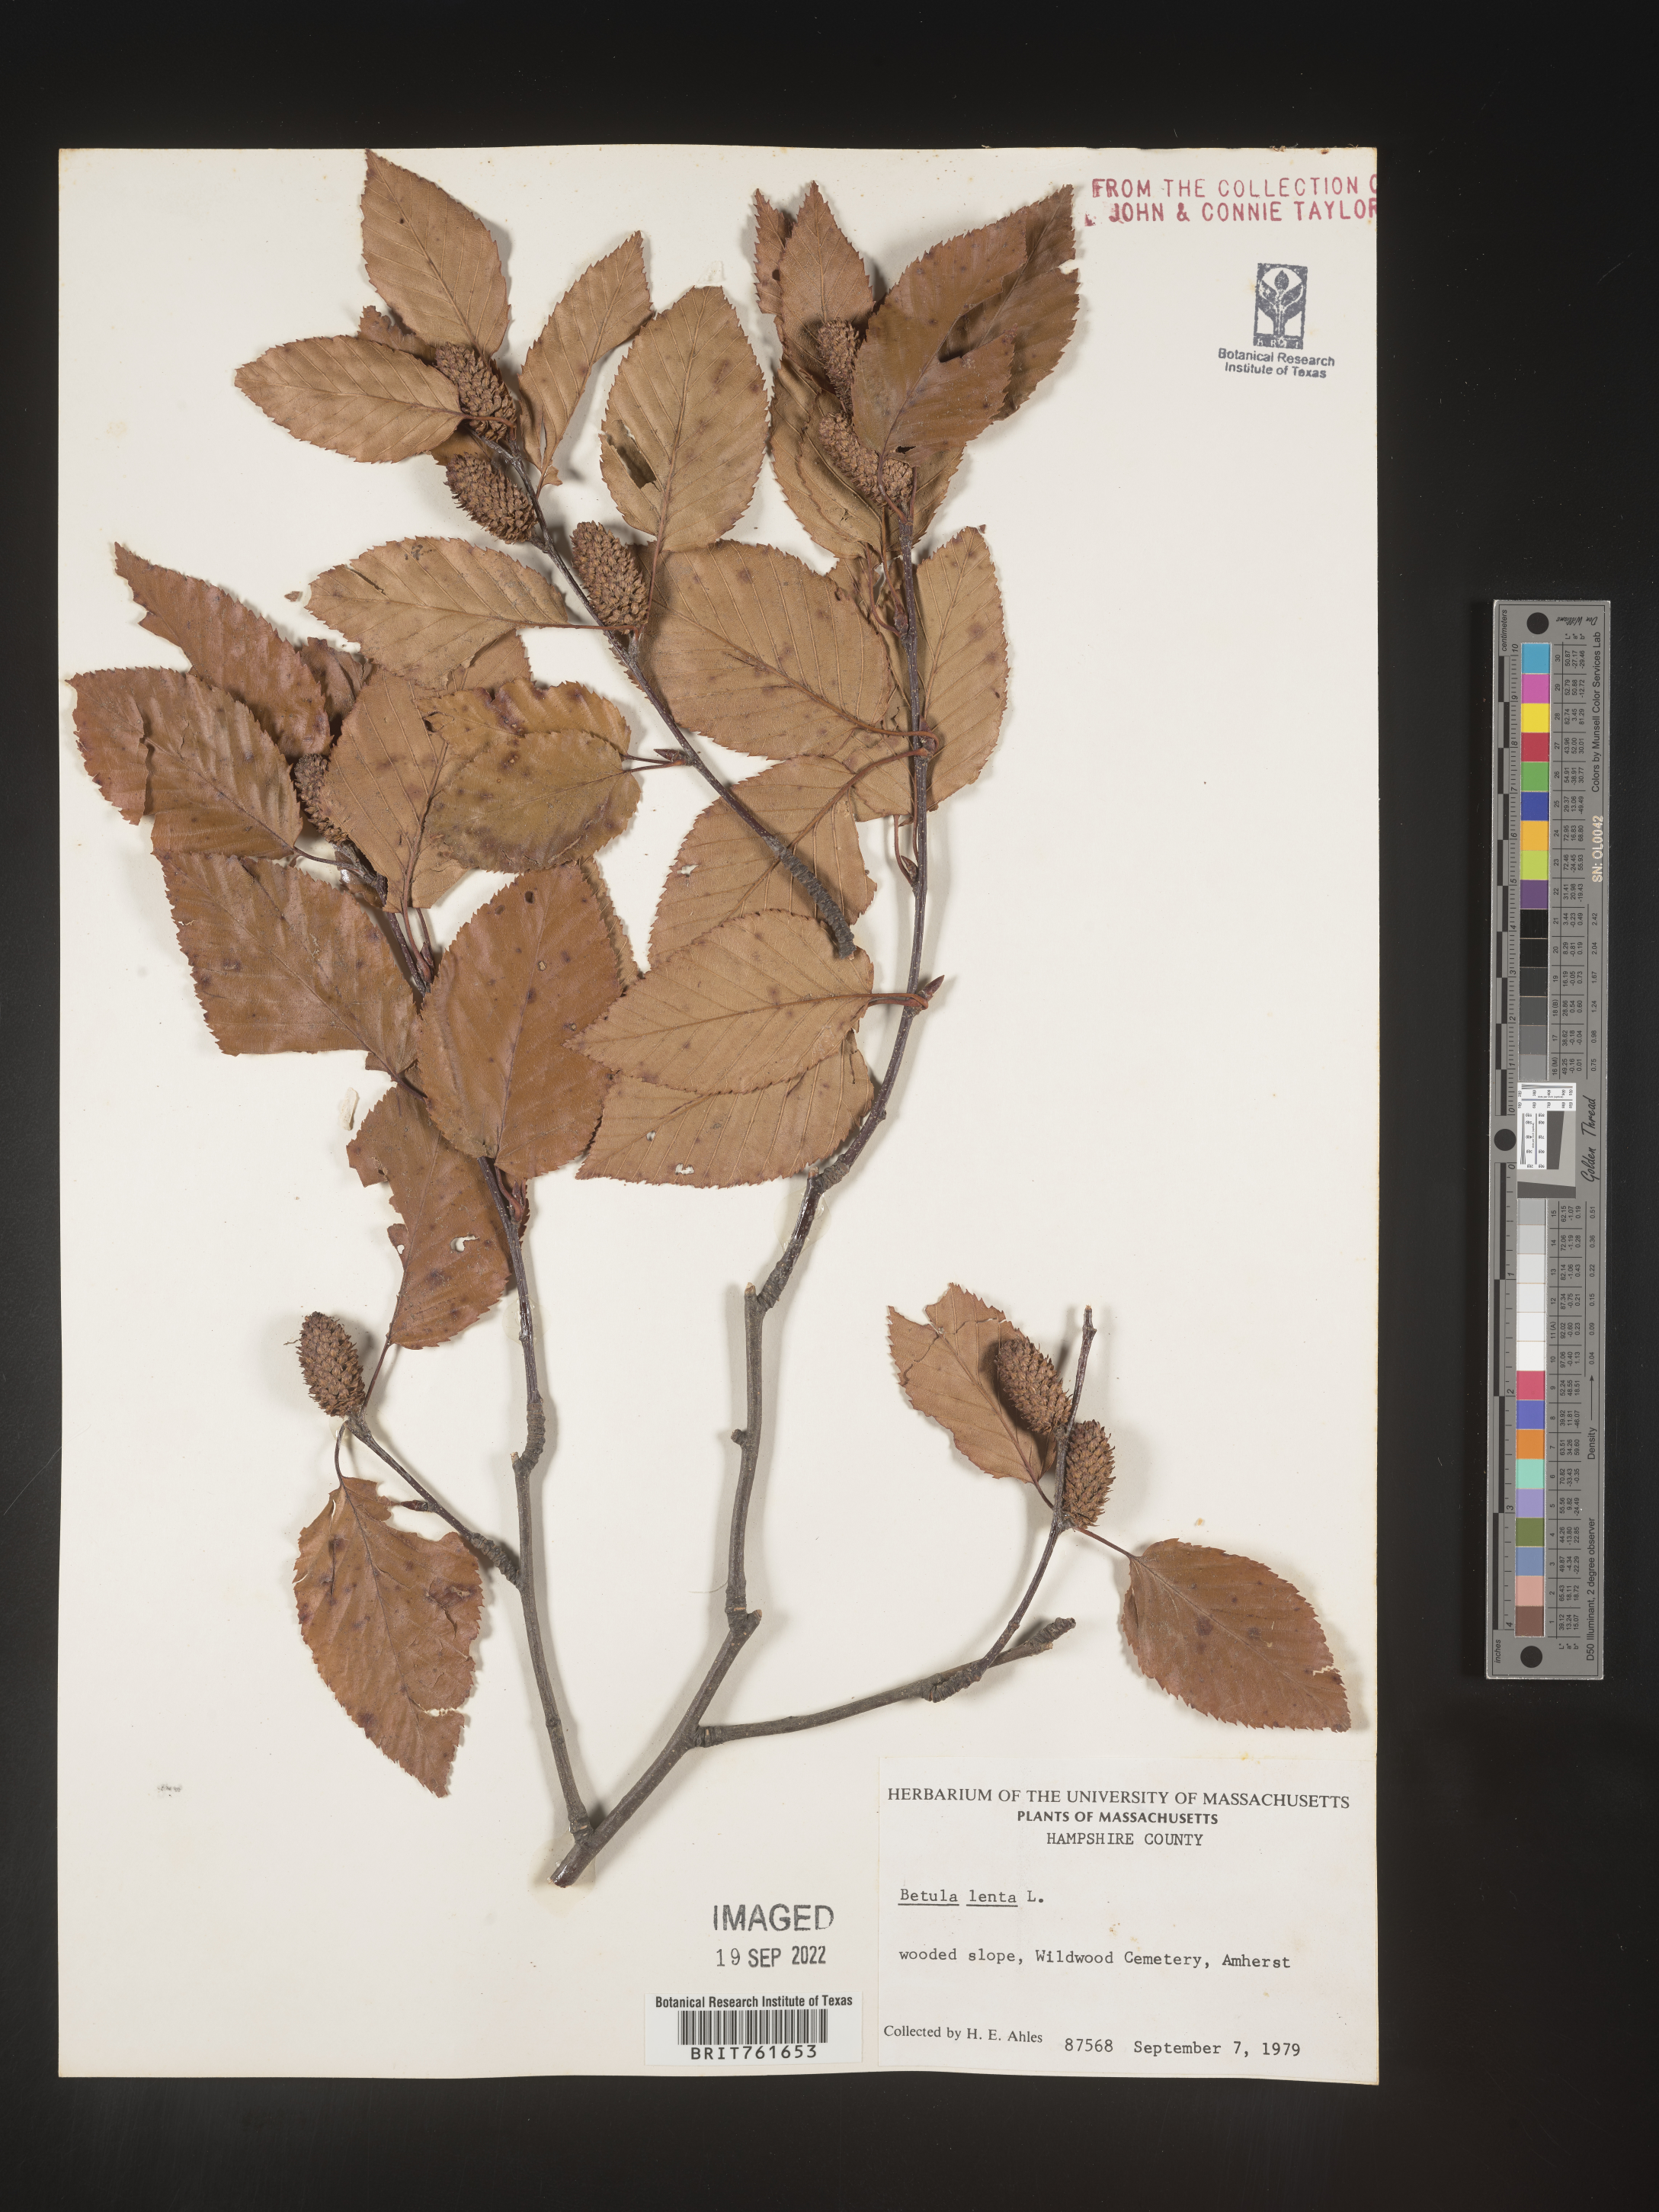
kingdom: Plantae
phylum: Tracheophyta
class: Magnoliopsida
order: Fagales
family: Betulaceae
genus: Betula
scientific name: Betula lenta
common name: Black birch
